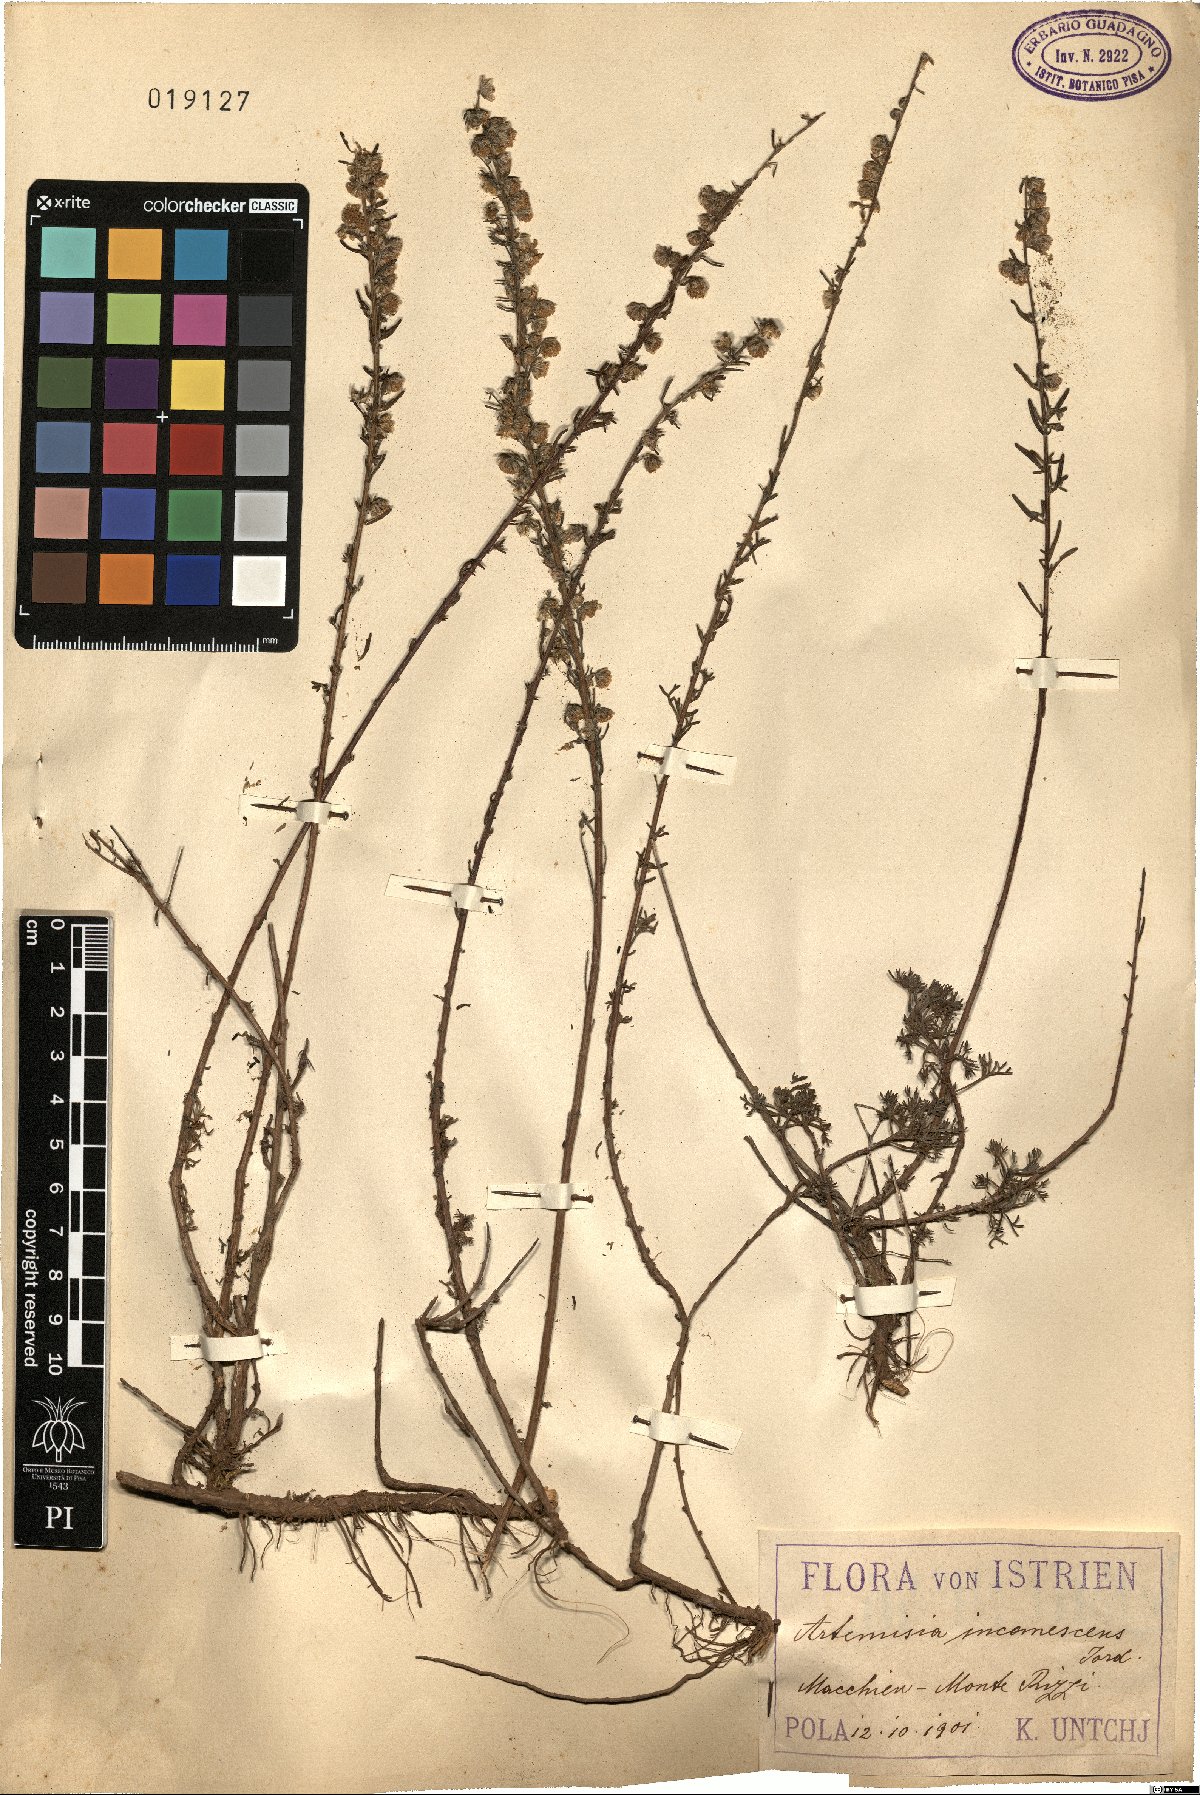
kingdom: Plantae
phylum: Tracheophyta
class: Magnoliopsida
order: Asterales
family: Asteraceae
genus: Artemisia
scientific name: Artemisia alba
